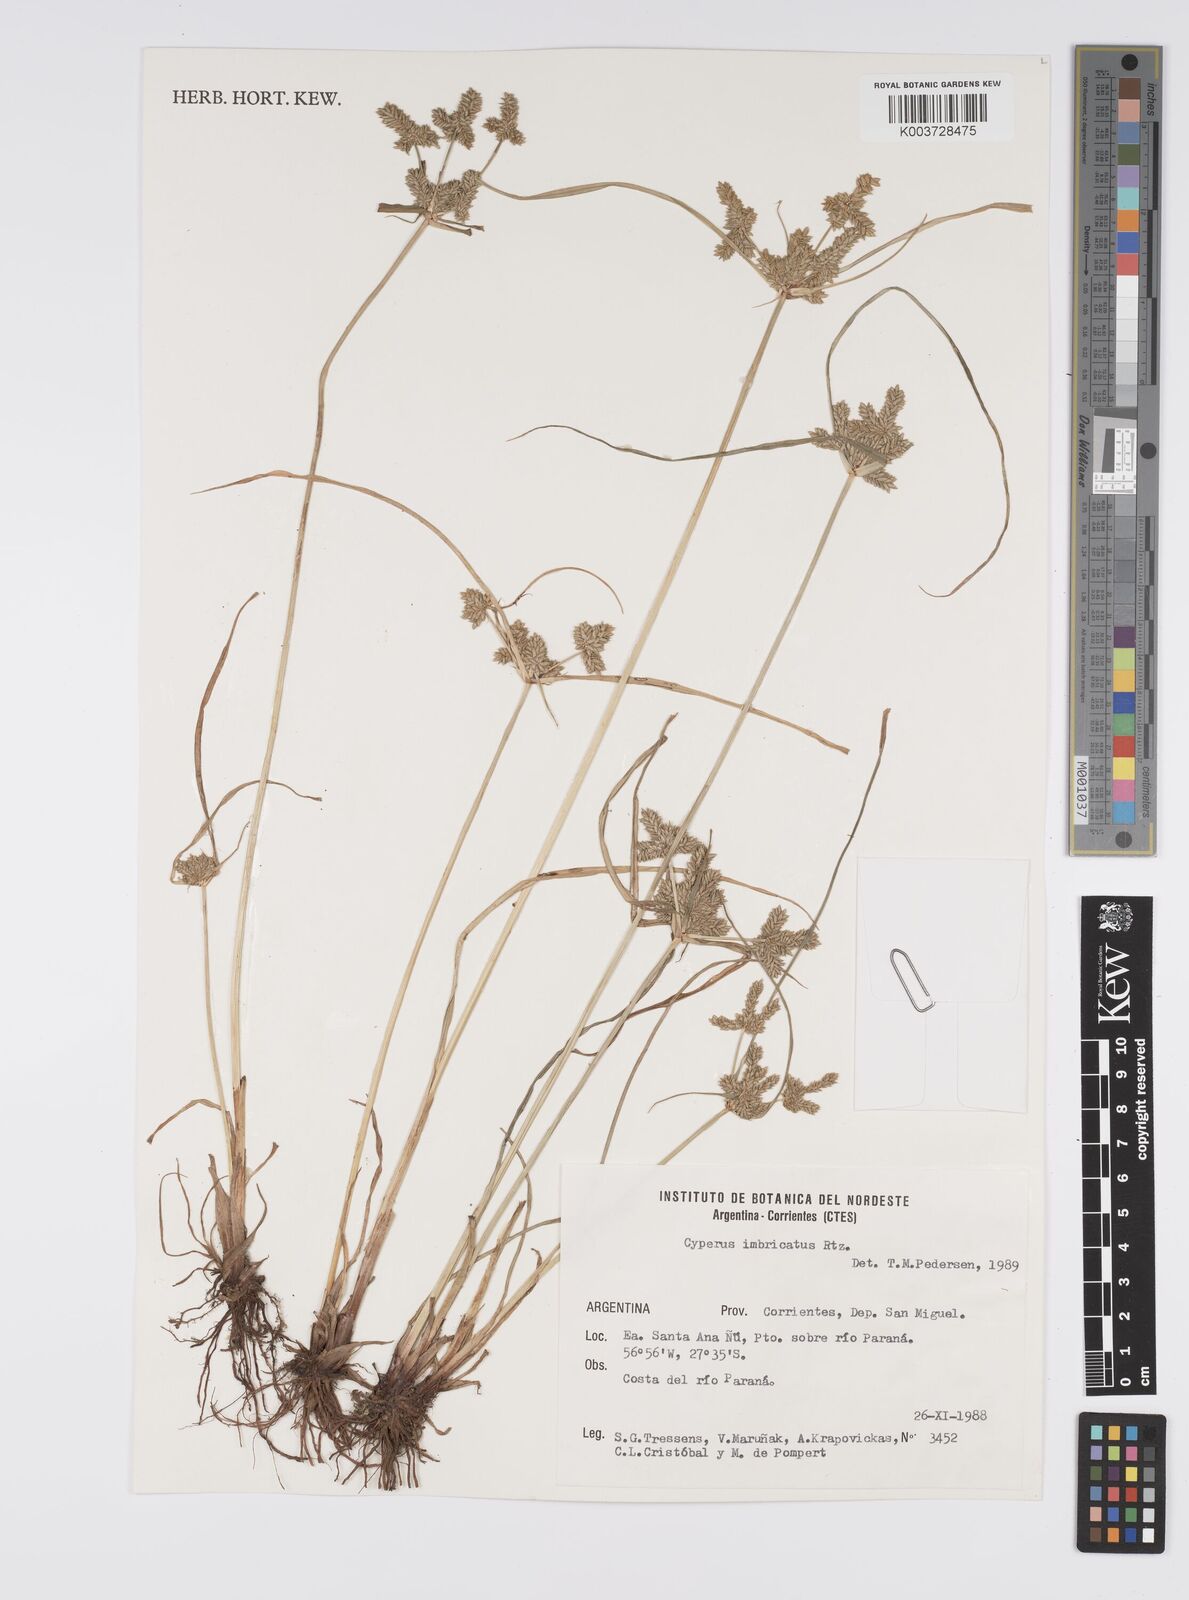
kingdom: Plantae
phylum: Tracheophyta
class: Liliopsida
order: Poales
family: Cyperaceae
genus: Cyperus
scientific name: Cyperus imbricatus
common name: Shingle flatsedge
